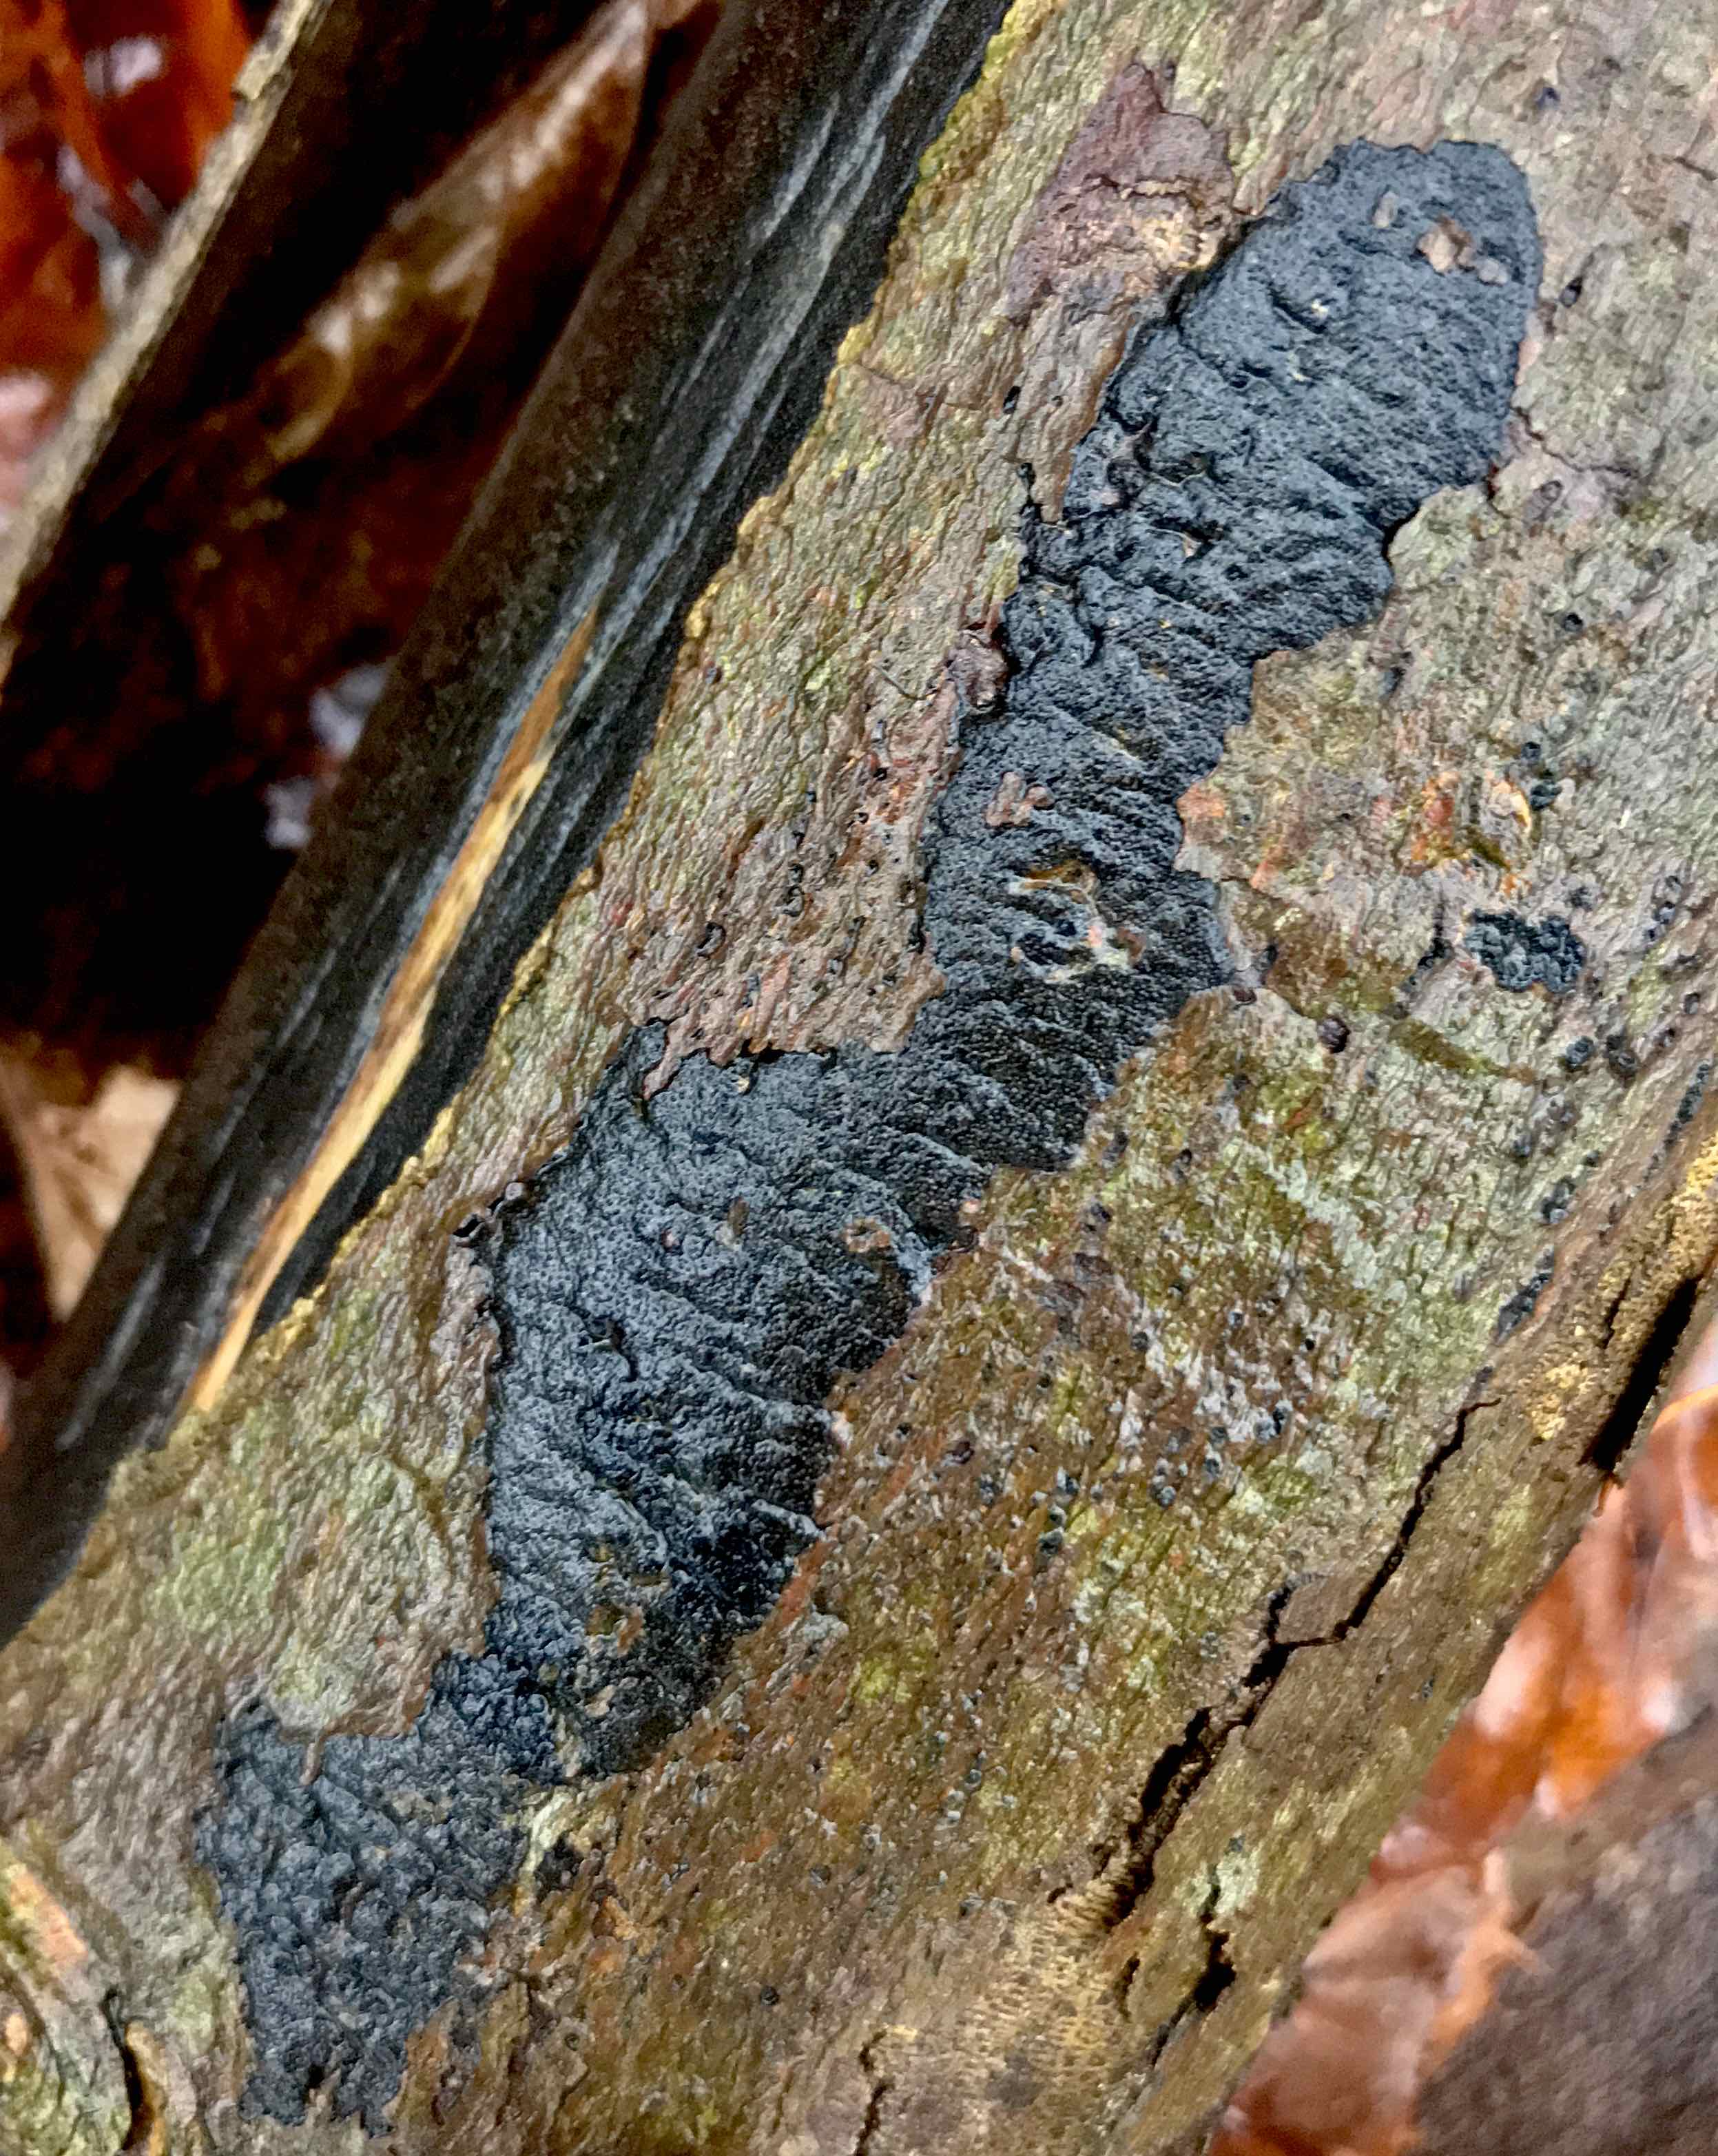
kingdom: Fungi
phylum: Ascomycota
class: Sordariomycetes
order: Xylariales
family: Diatrypaceae
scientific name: Diatrypaceae
